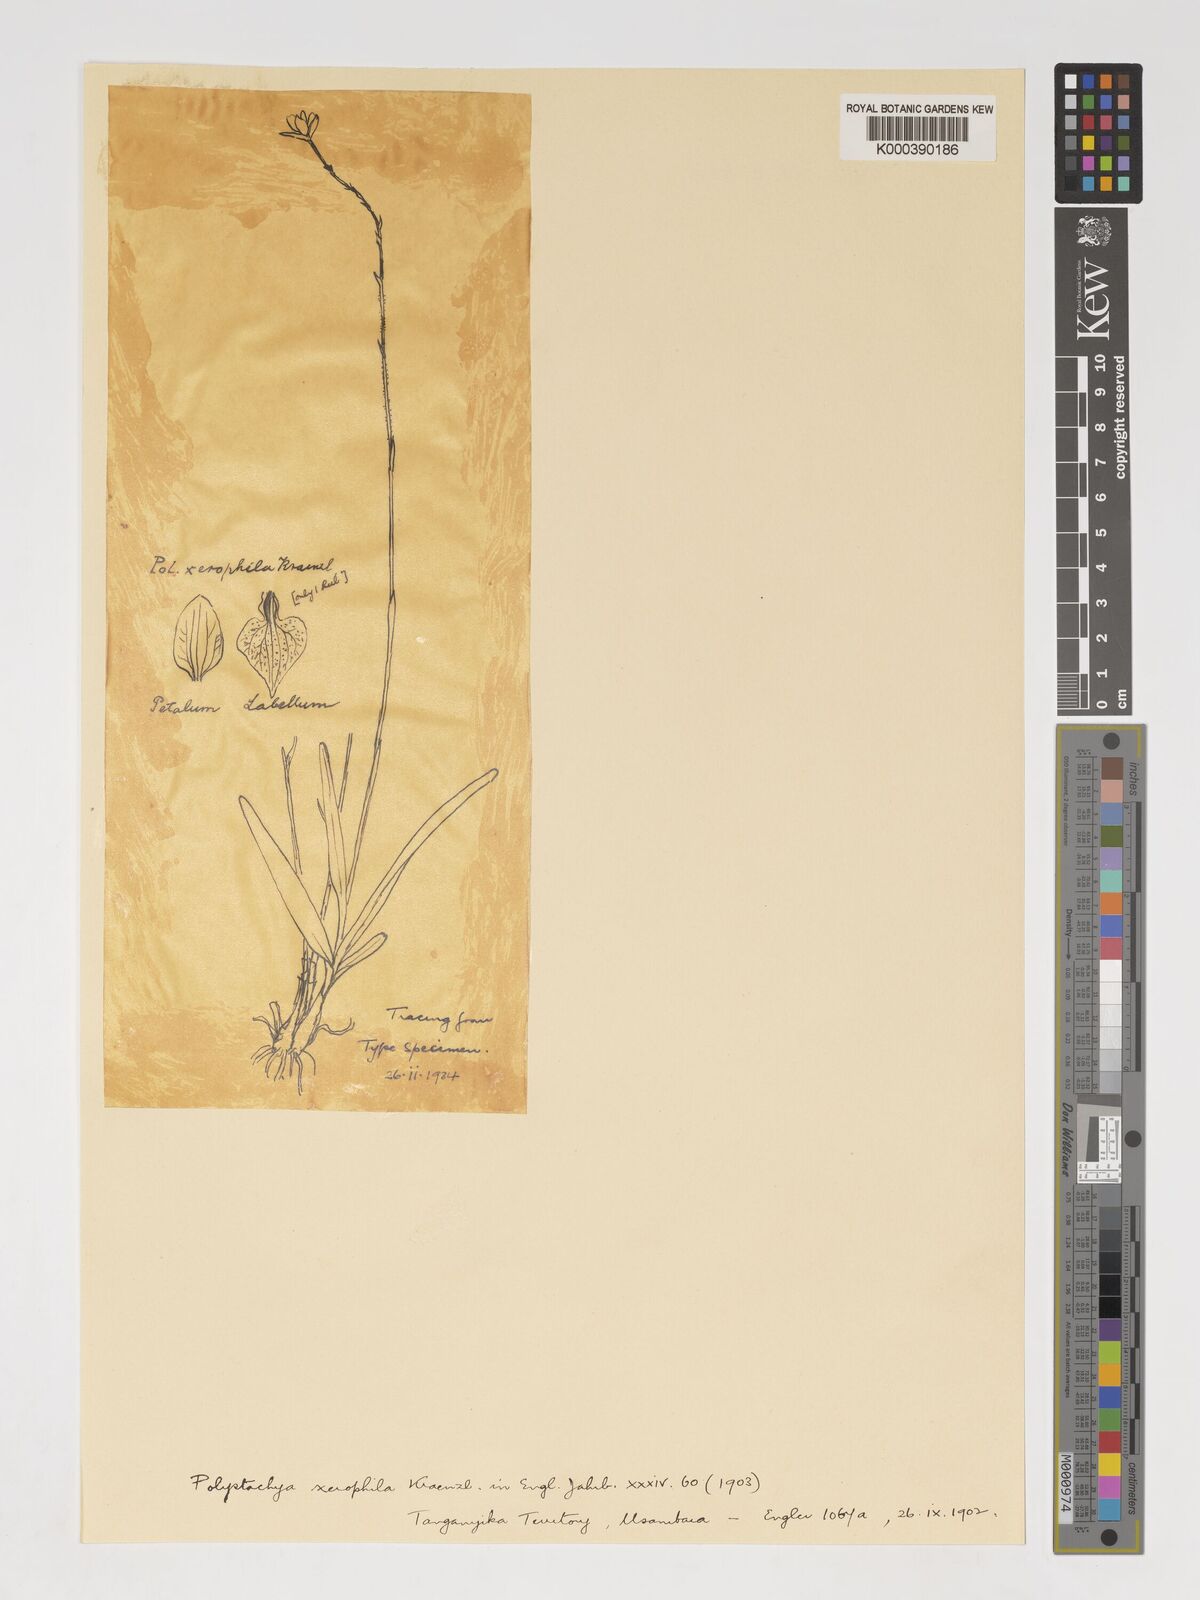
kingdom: Plantae
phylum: Tracheophyta
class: Liliopsida
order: Asparagales
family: Orchidaceae
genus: Polystachya
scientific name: Polystachya xerophila
